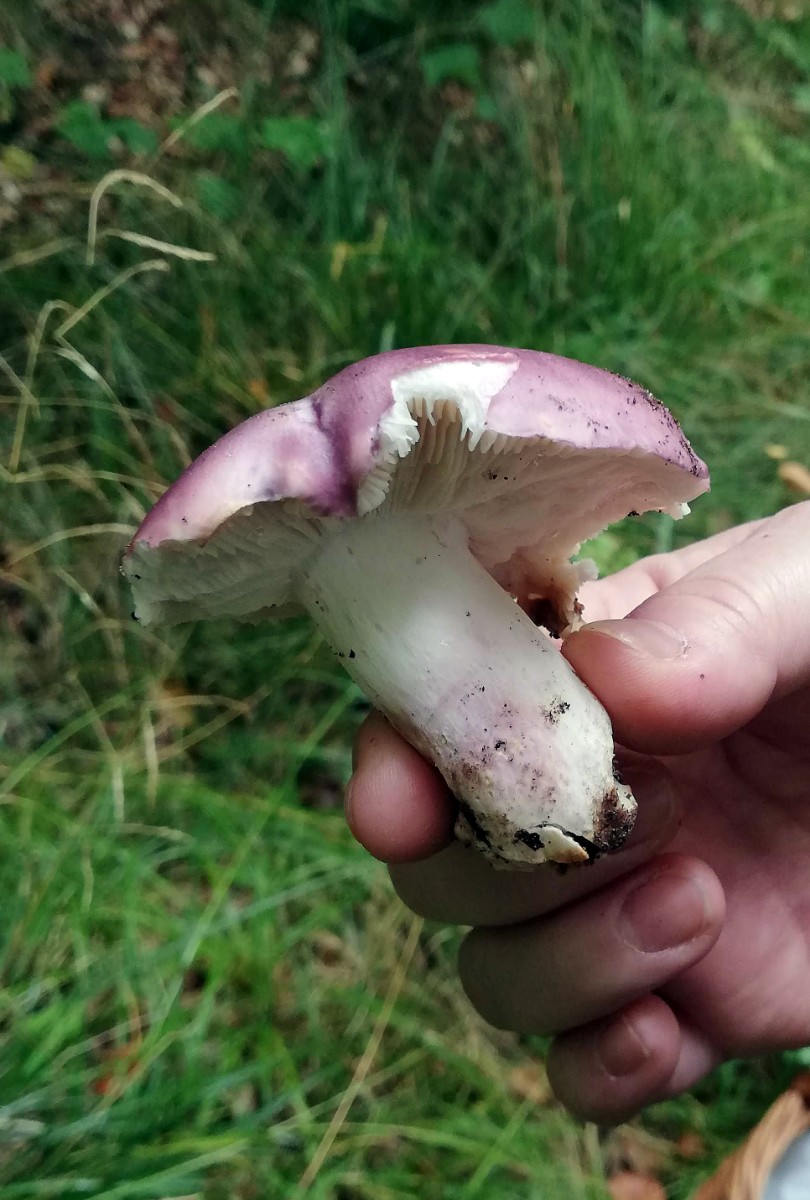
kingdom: Fungi
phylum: Basidiomycota
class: Agaricomycetes
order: Russulales
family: Russulaceae
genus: Russula
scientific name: Russula
